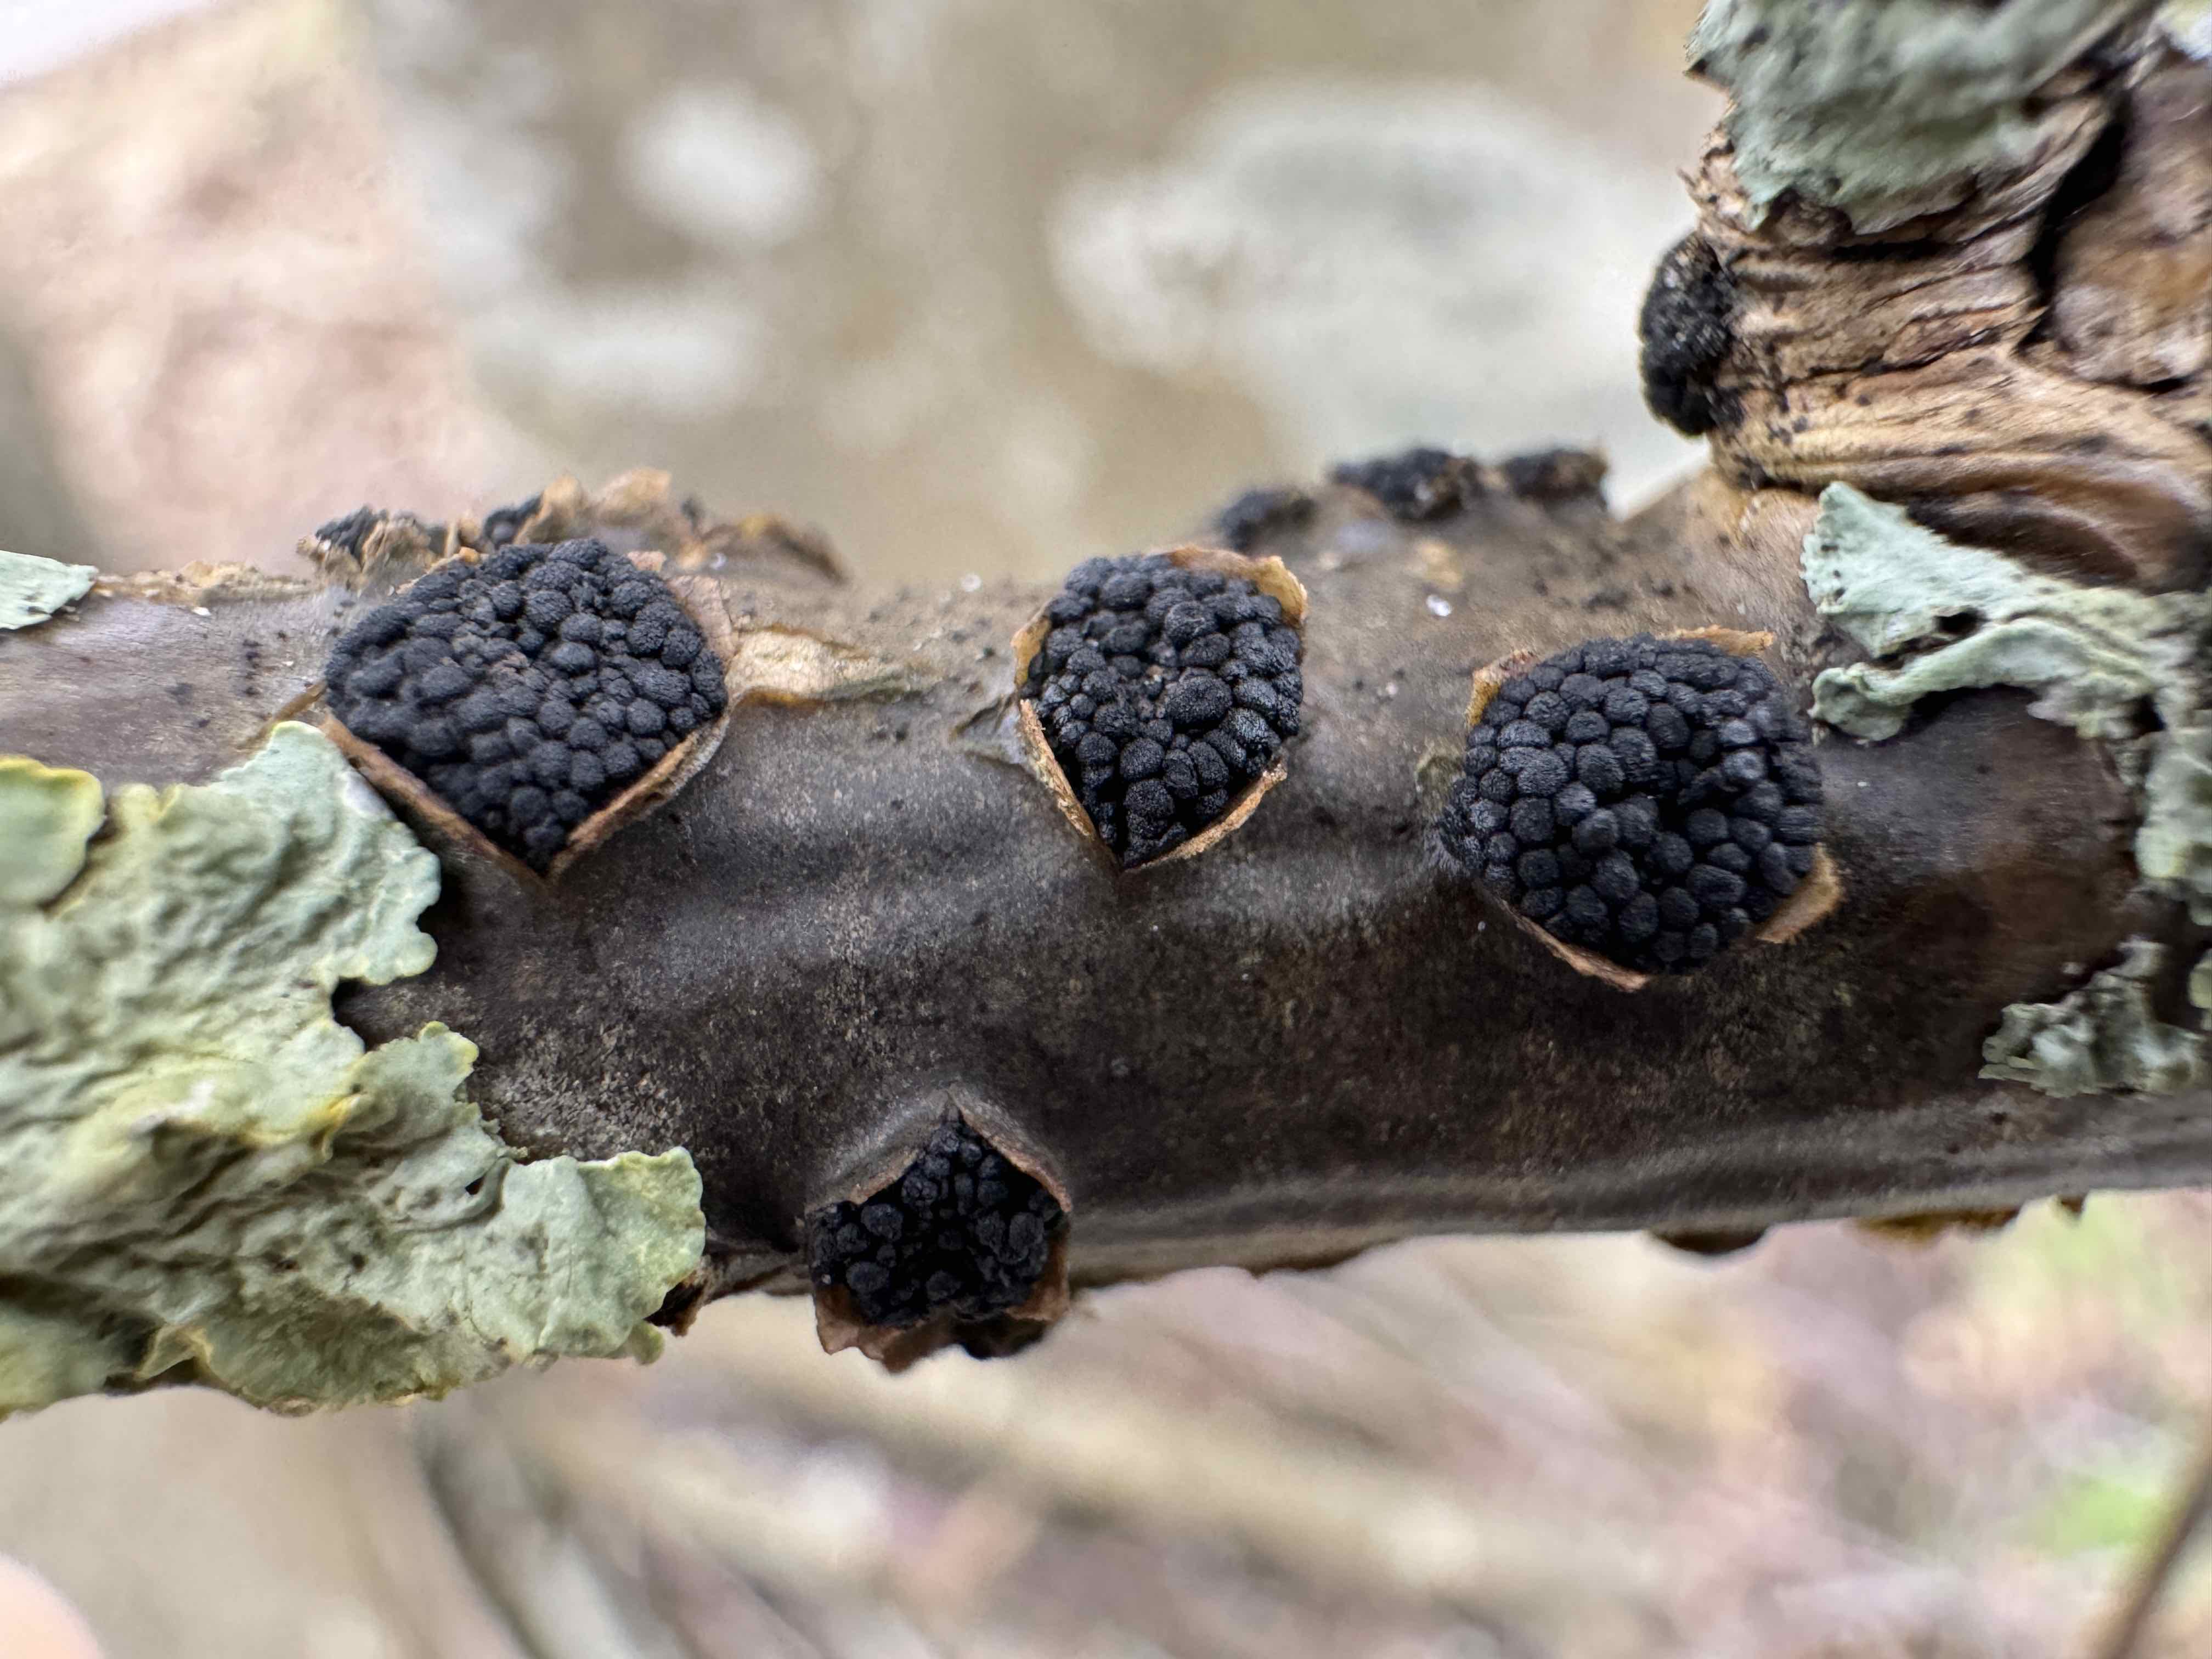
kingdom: Fungi
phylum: Ascomycota
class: Sordariomycetes
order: Xylariales
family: Diatrypaceae
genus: Eutypella
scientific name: Eutypella sorbi
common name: rønne-kulskorpe
